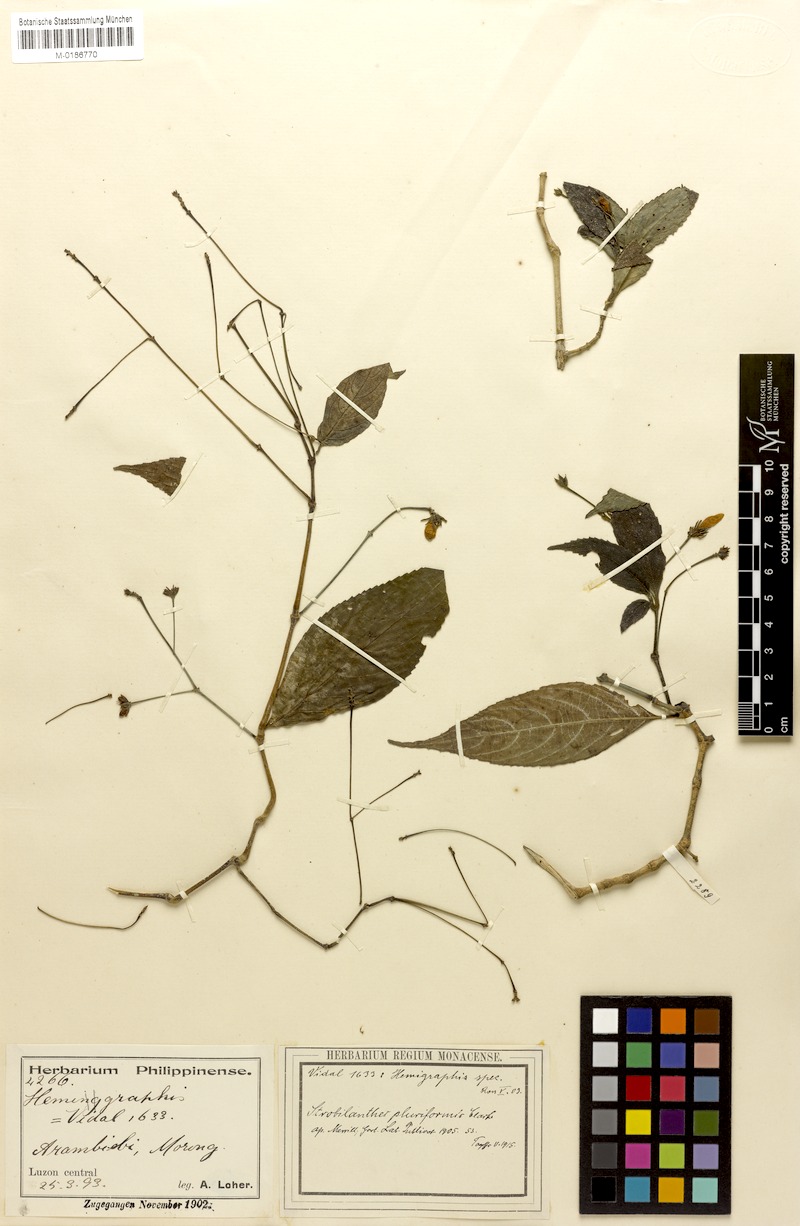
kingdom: Plantae
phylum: Tracheophyta
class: Magnoliopsida
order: Lamiales
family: Acanthaceae
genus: Strobilanthes
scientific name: Strobilanthes pluriformis
